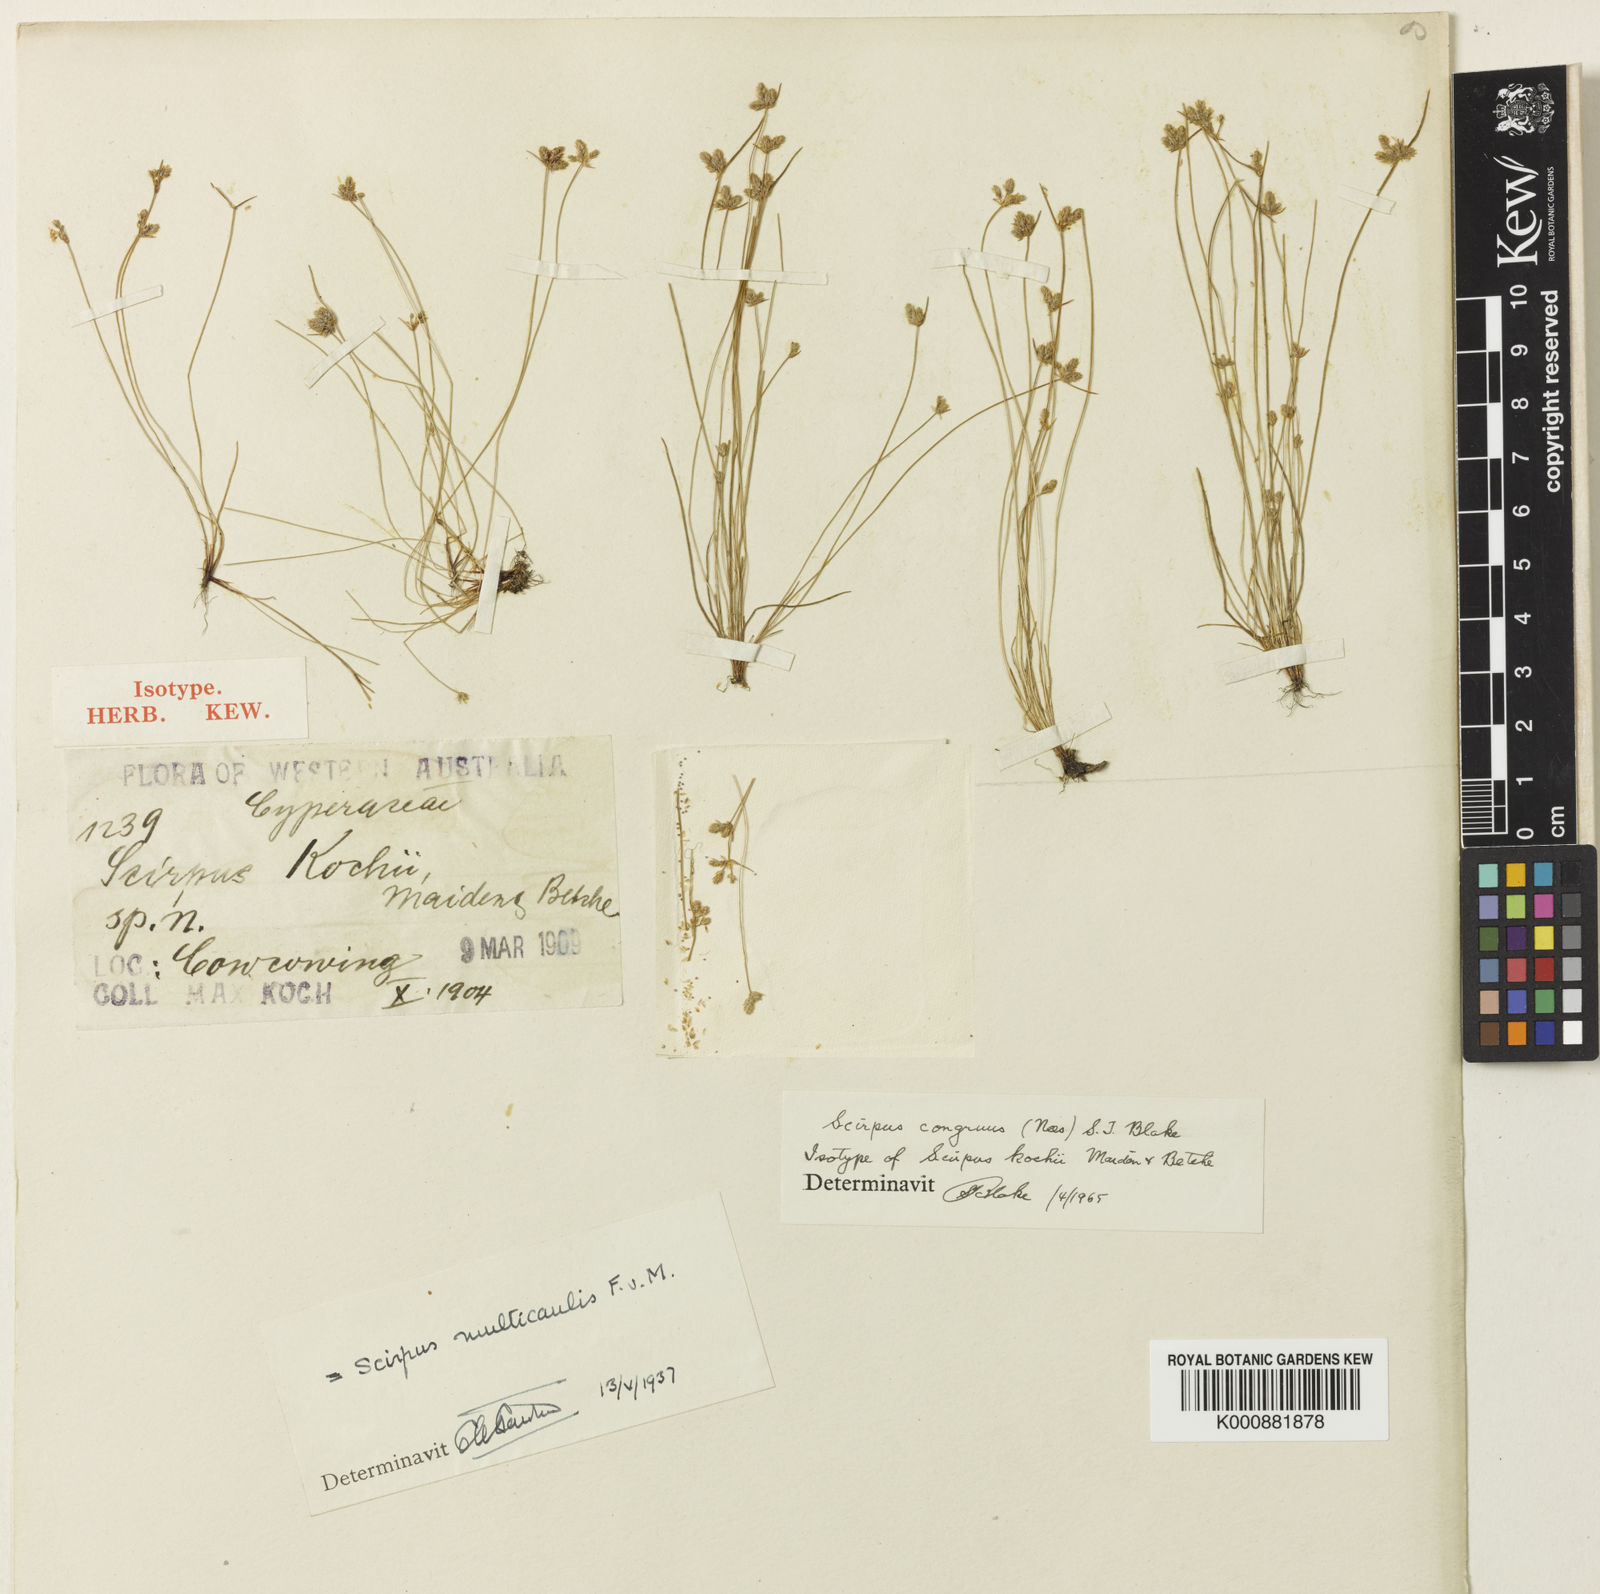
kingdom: Plantae
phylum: Tracheophyta
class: Liliopsida
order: Poales
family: Cyperaceae
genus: Isolepis
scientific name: Isolepis congrua
